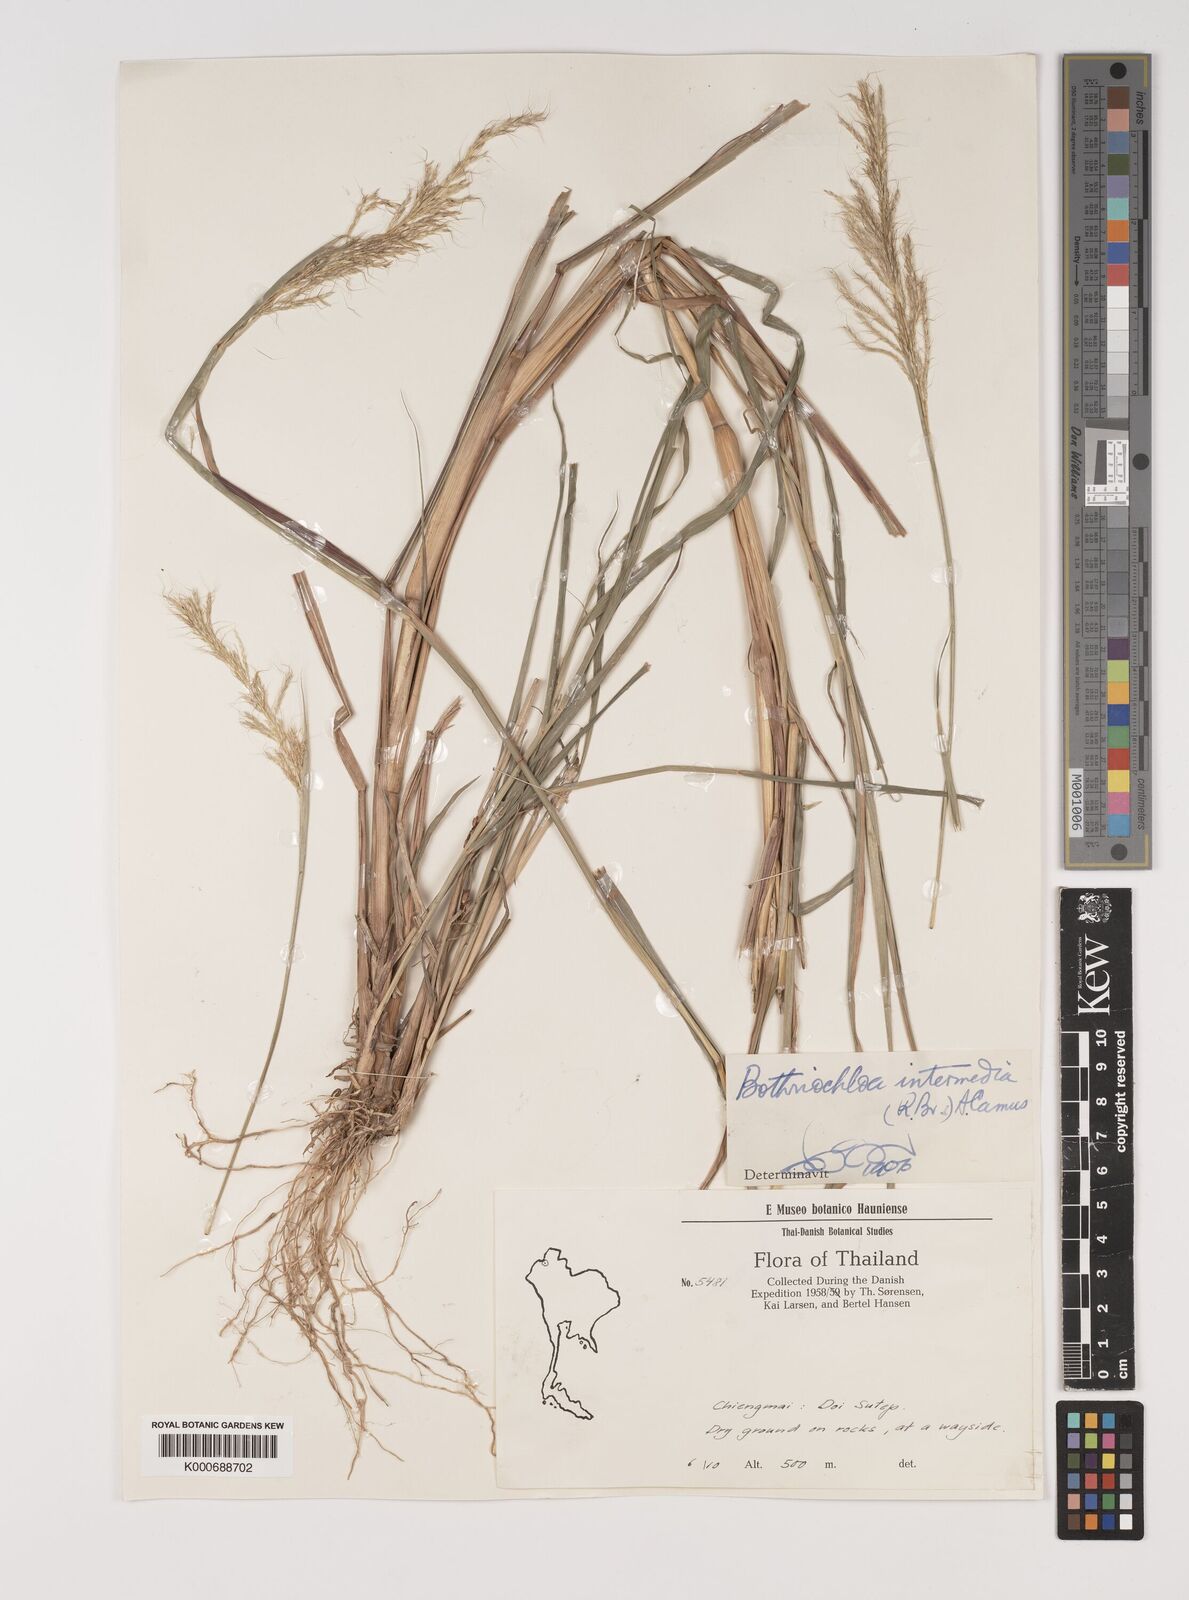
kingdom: Plantae
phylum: Tracheophyta
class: Liliopsida
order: Poales
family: Poaceae
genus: Bothriochloa
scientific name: Bothriochloa bladhii
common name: Caucasian bluestem
